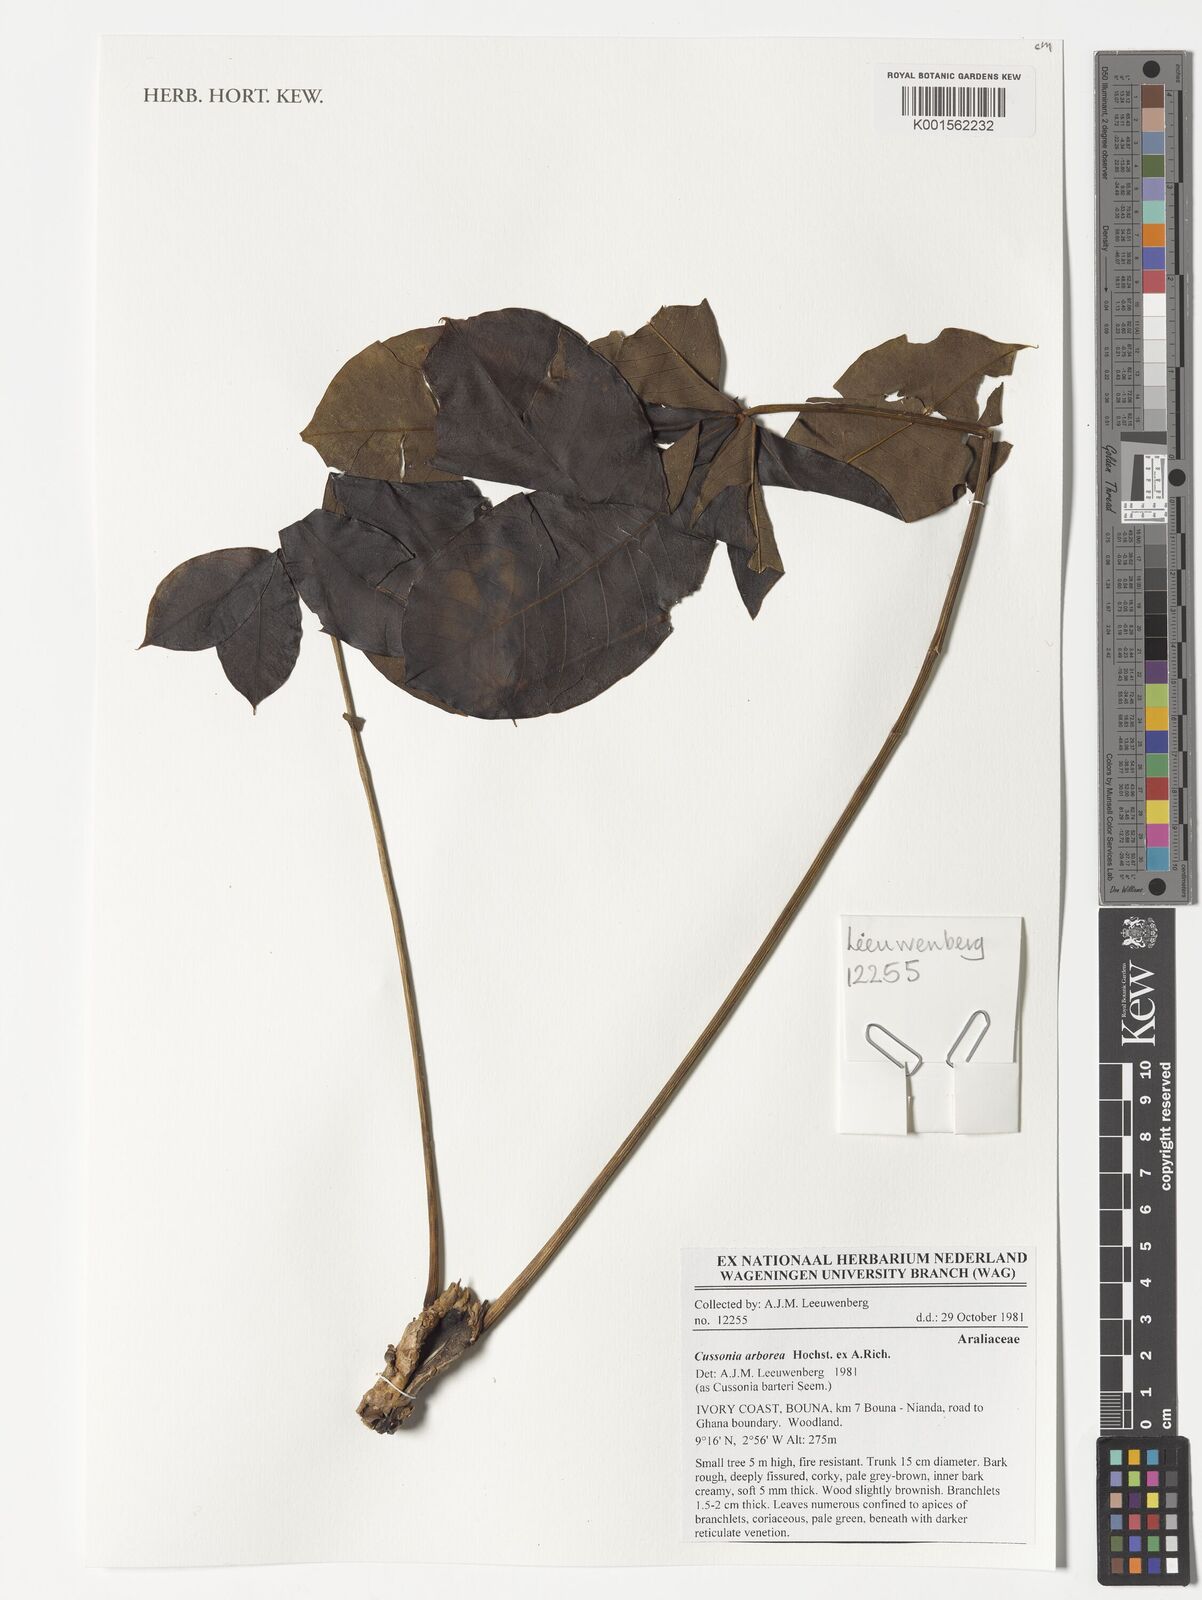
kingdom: Plantae
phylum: Tracheophyta
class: Magnoliopsida
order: Apiales
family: Araliaceae
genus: Cussonia
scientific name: Cussonia arborea
